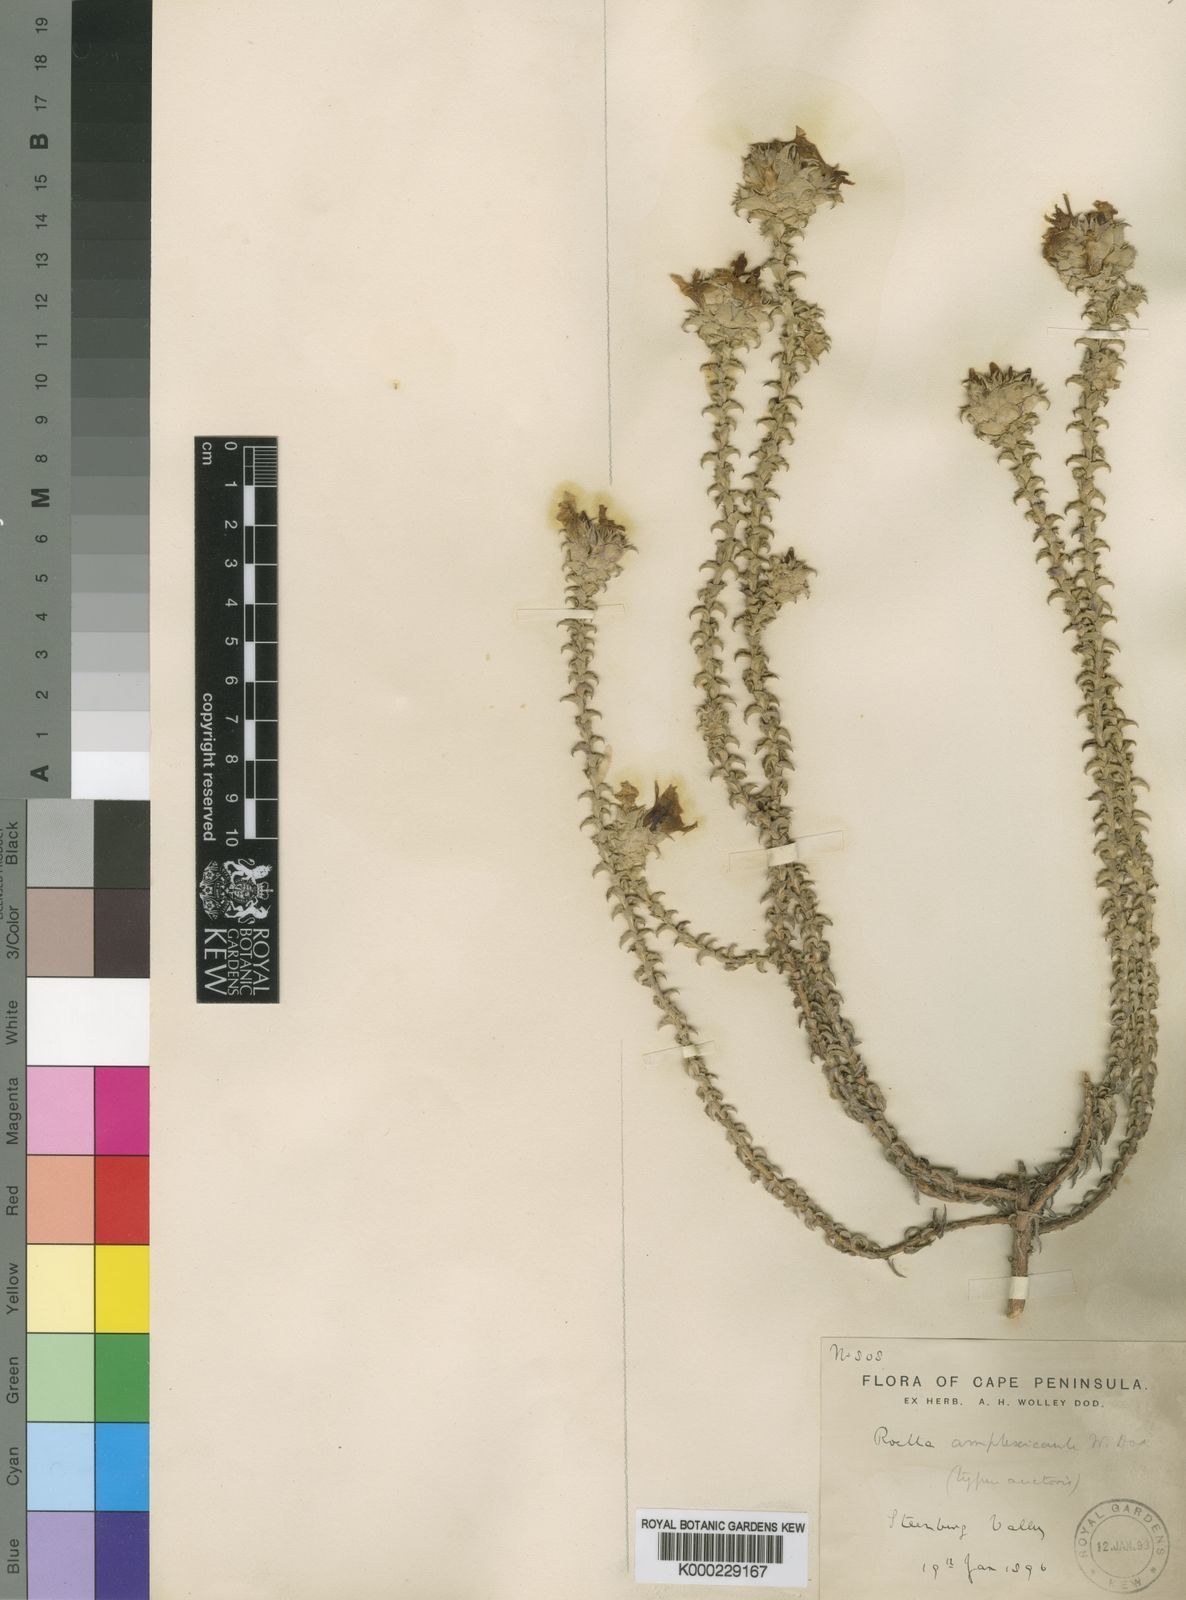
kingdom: Plantae
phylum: Tracheophyta
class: Magnoliopsida
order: Asterales
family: Campanulaceae
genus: Roella
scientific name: Roella
